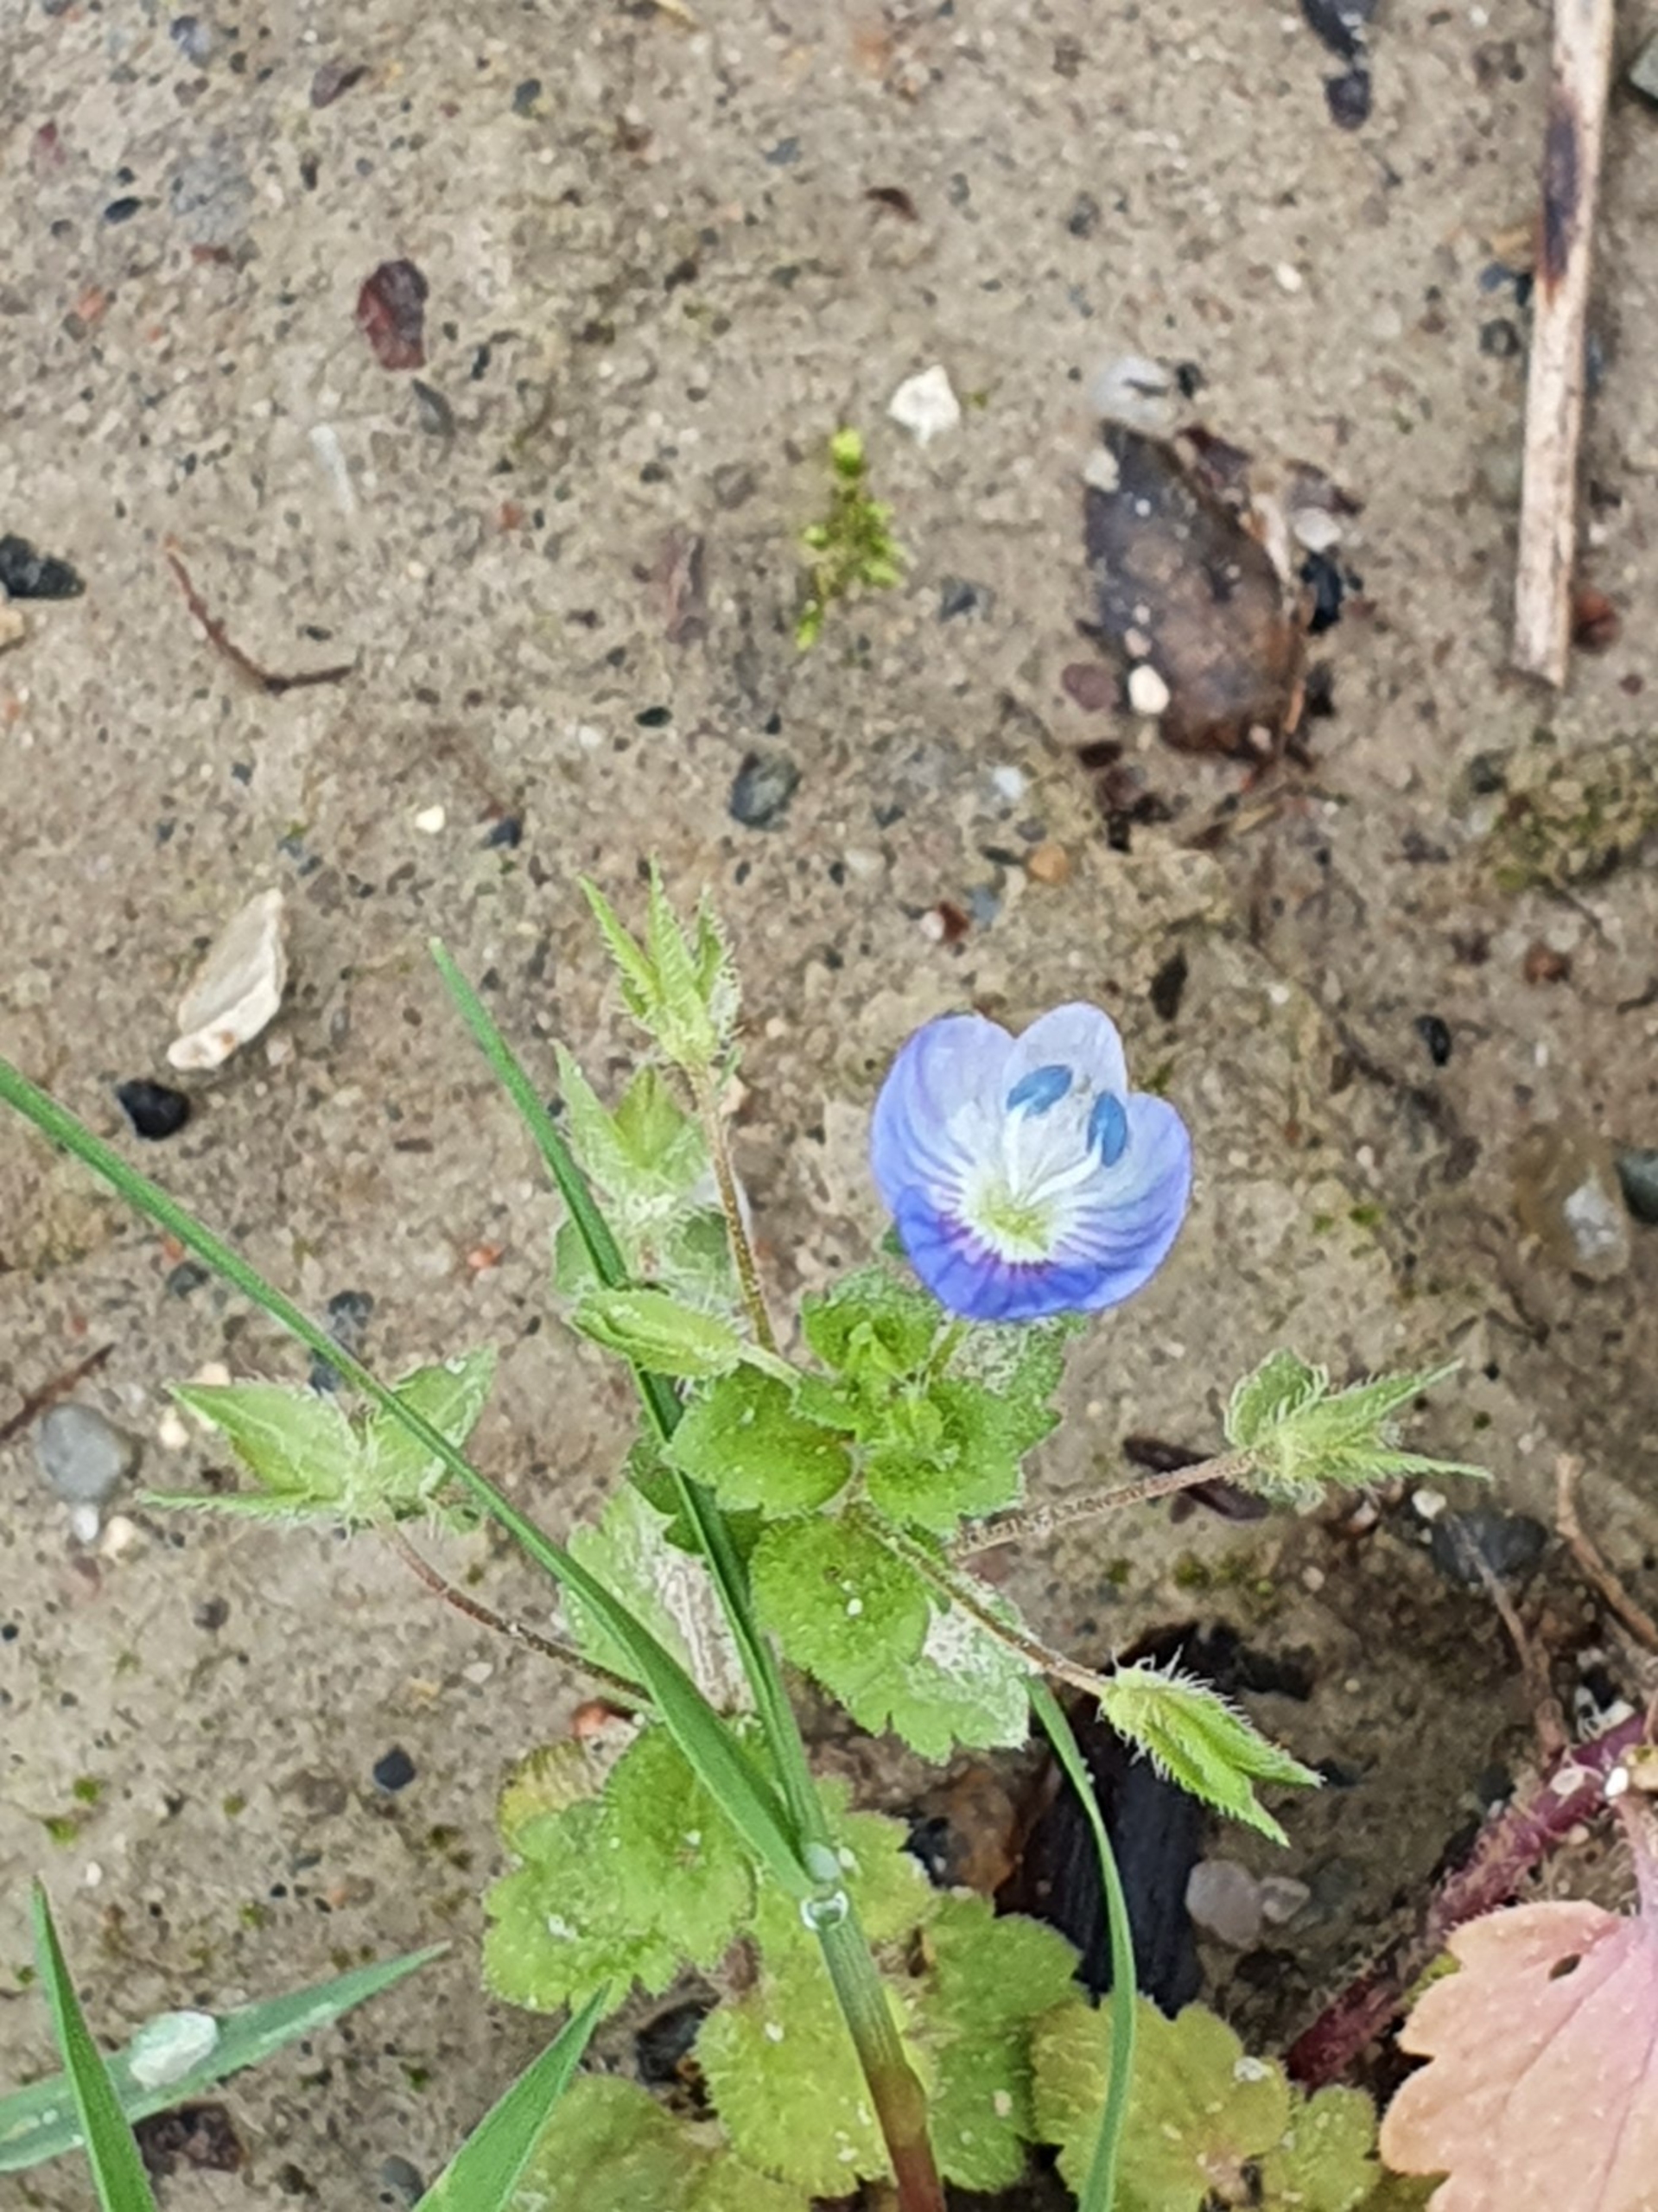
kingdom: Plantae
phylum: Tracheophyta
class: Magnoliopsida
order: Lamiales
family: Plantaginaceae
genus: Veronica
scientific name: Veronica persica
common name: Storkronet ærenpris
